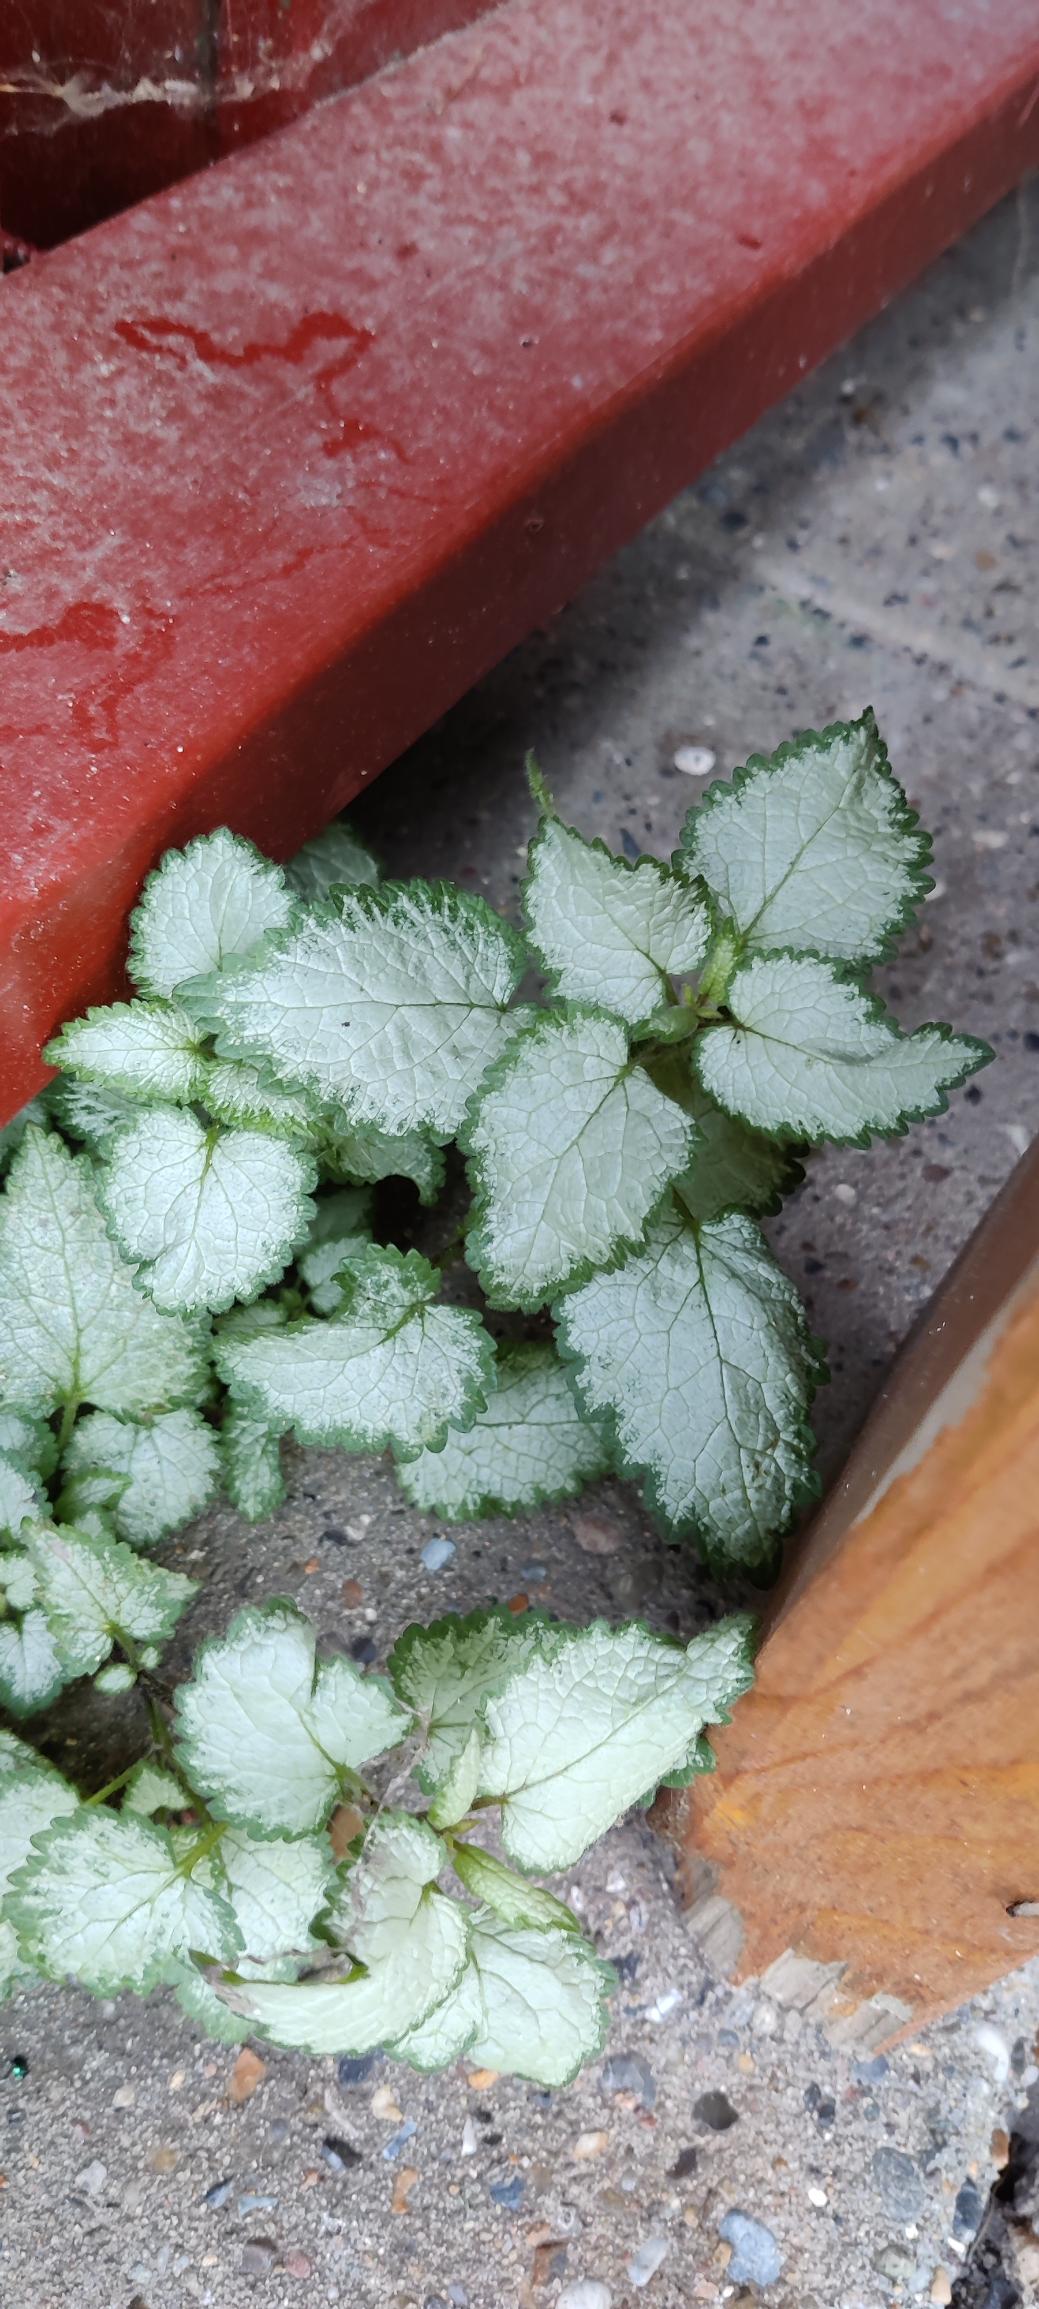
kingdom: Plantae
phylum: Tracheophyta
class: Magnoliopsida
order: Lamiales
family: Lamiaceae
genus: Lamium
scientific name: Lamium maculatum
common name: Plettet tvetand
